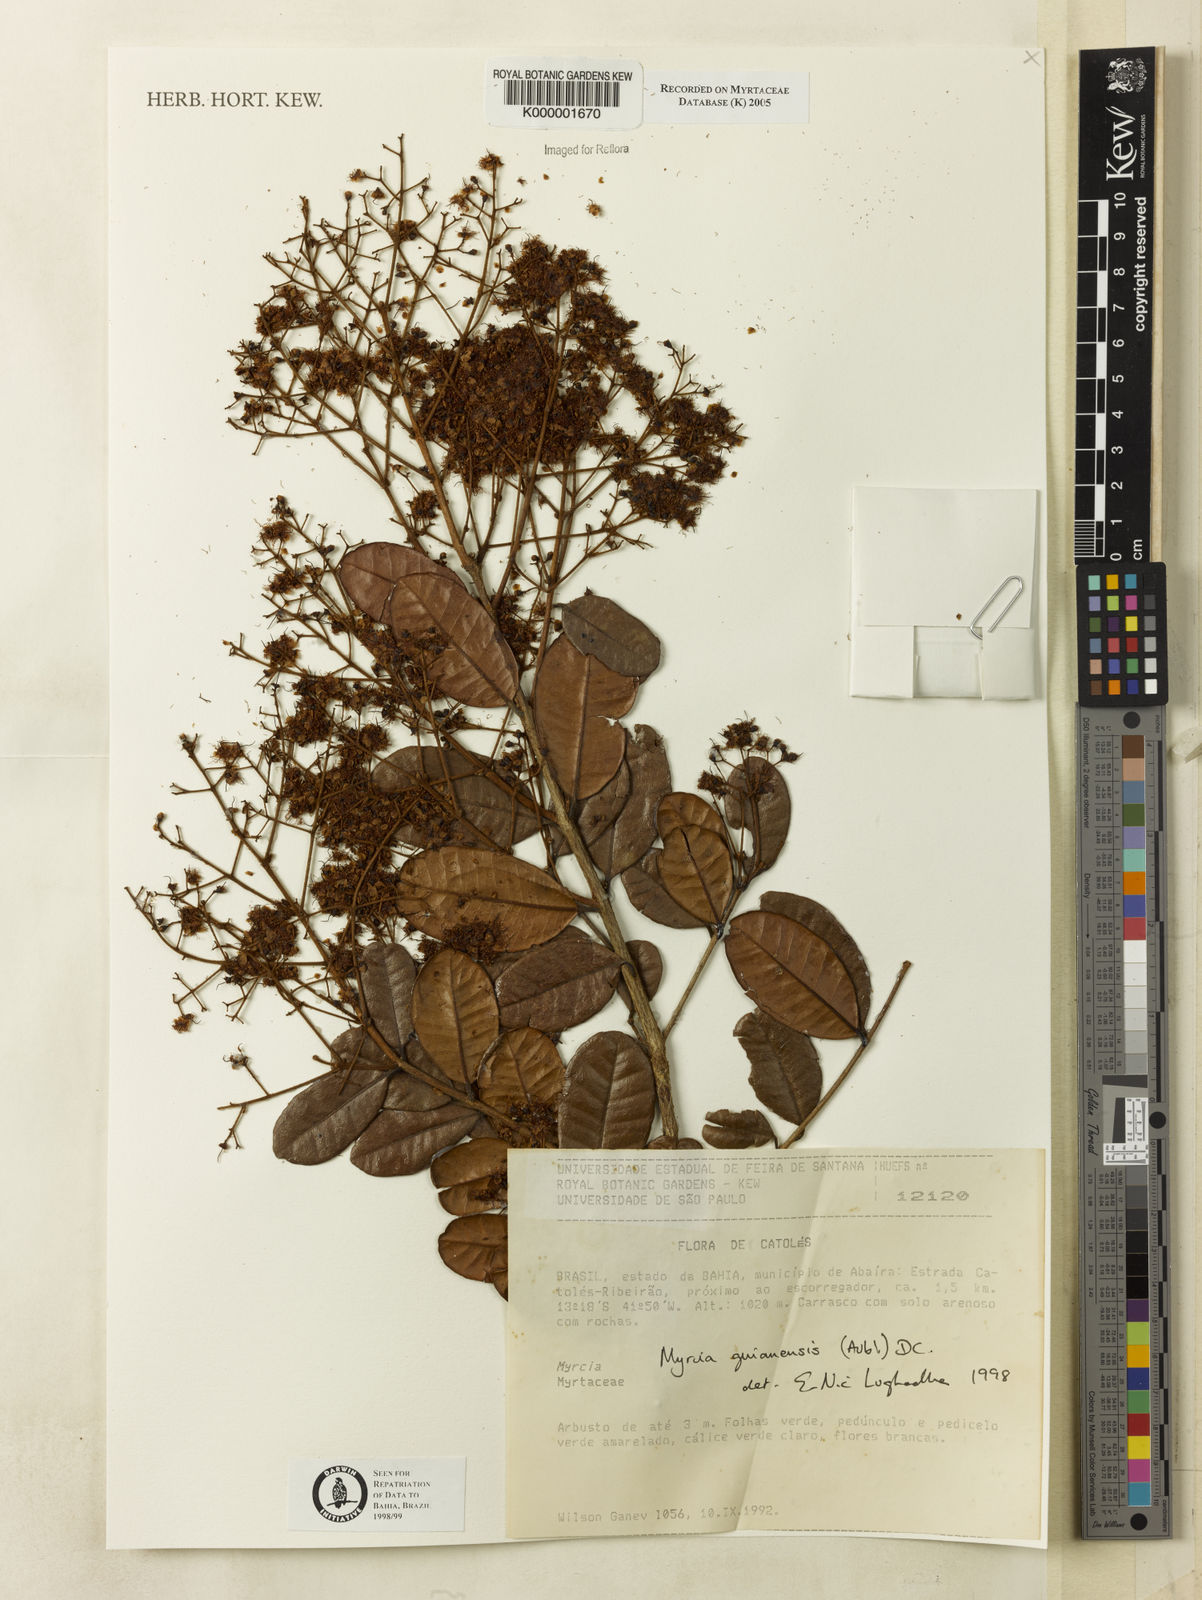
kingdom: Plantae
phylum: Tracheophyta
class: Magnoliopsida
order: Myrtales
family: Myrtaceae
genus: Myrcia
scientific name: Myrcia guianensis
